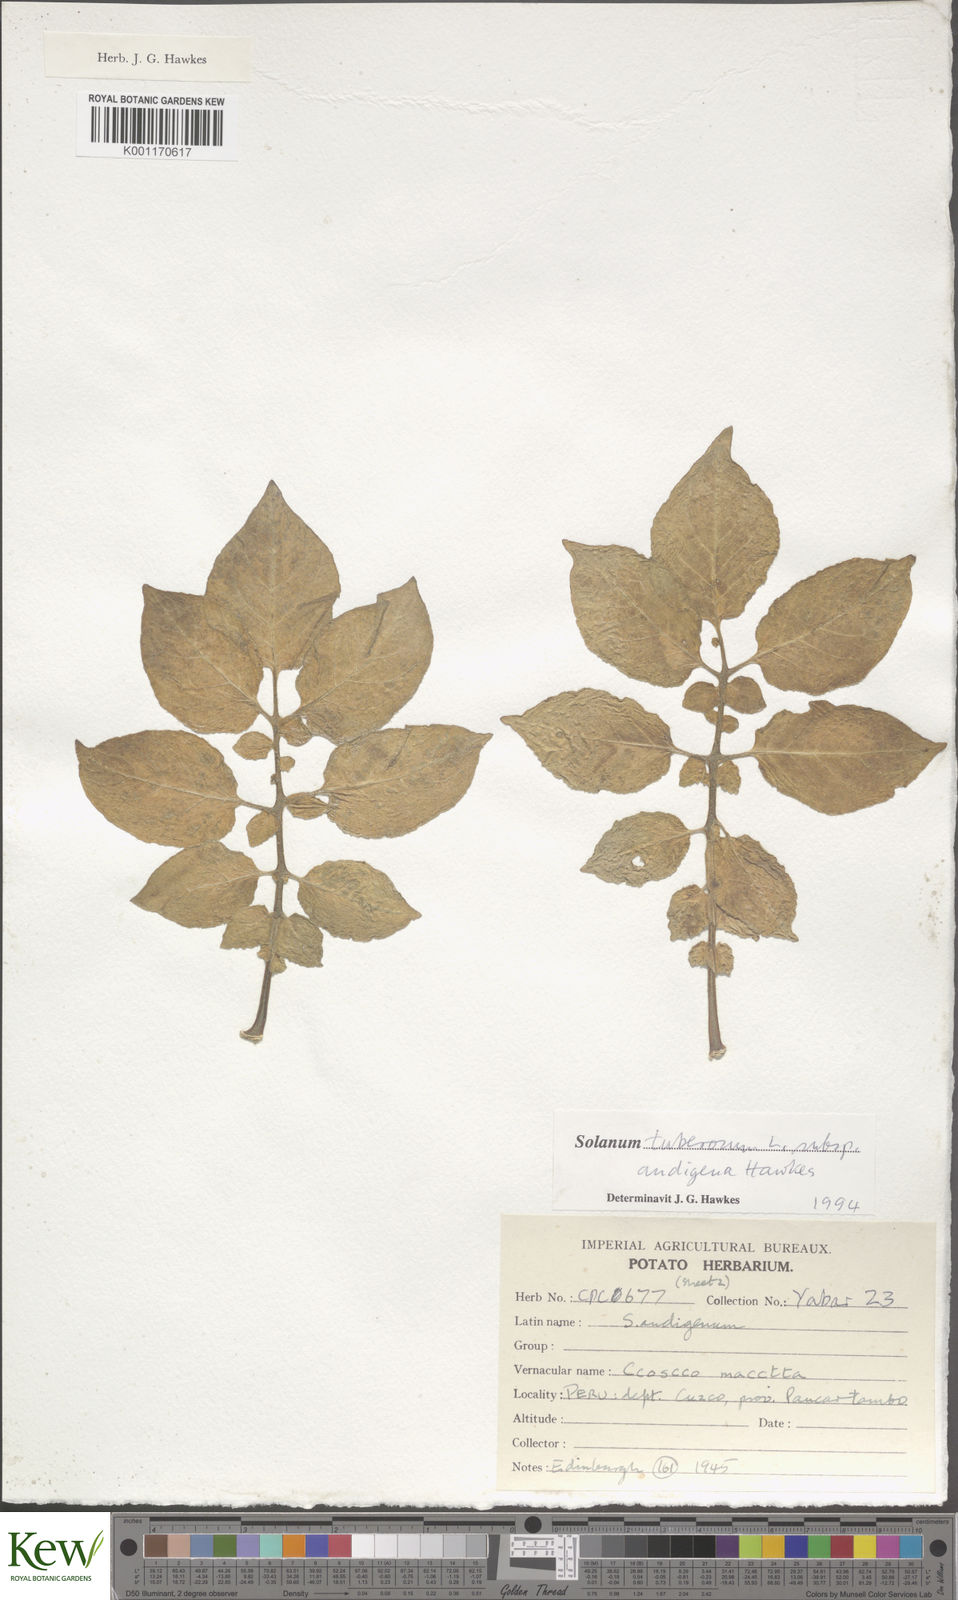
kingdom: Plantae
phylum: Tracheophyta
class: Magnoliopsida
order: Solanales
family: Solanaceae
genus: Solanum
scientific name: Solanum tuberosum
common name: Potato
